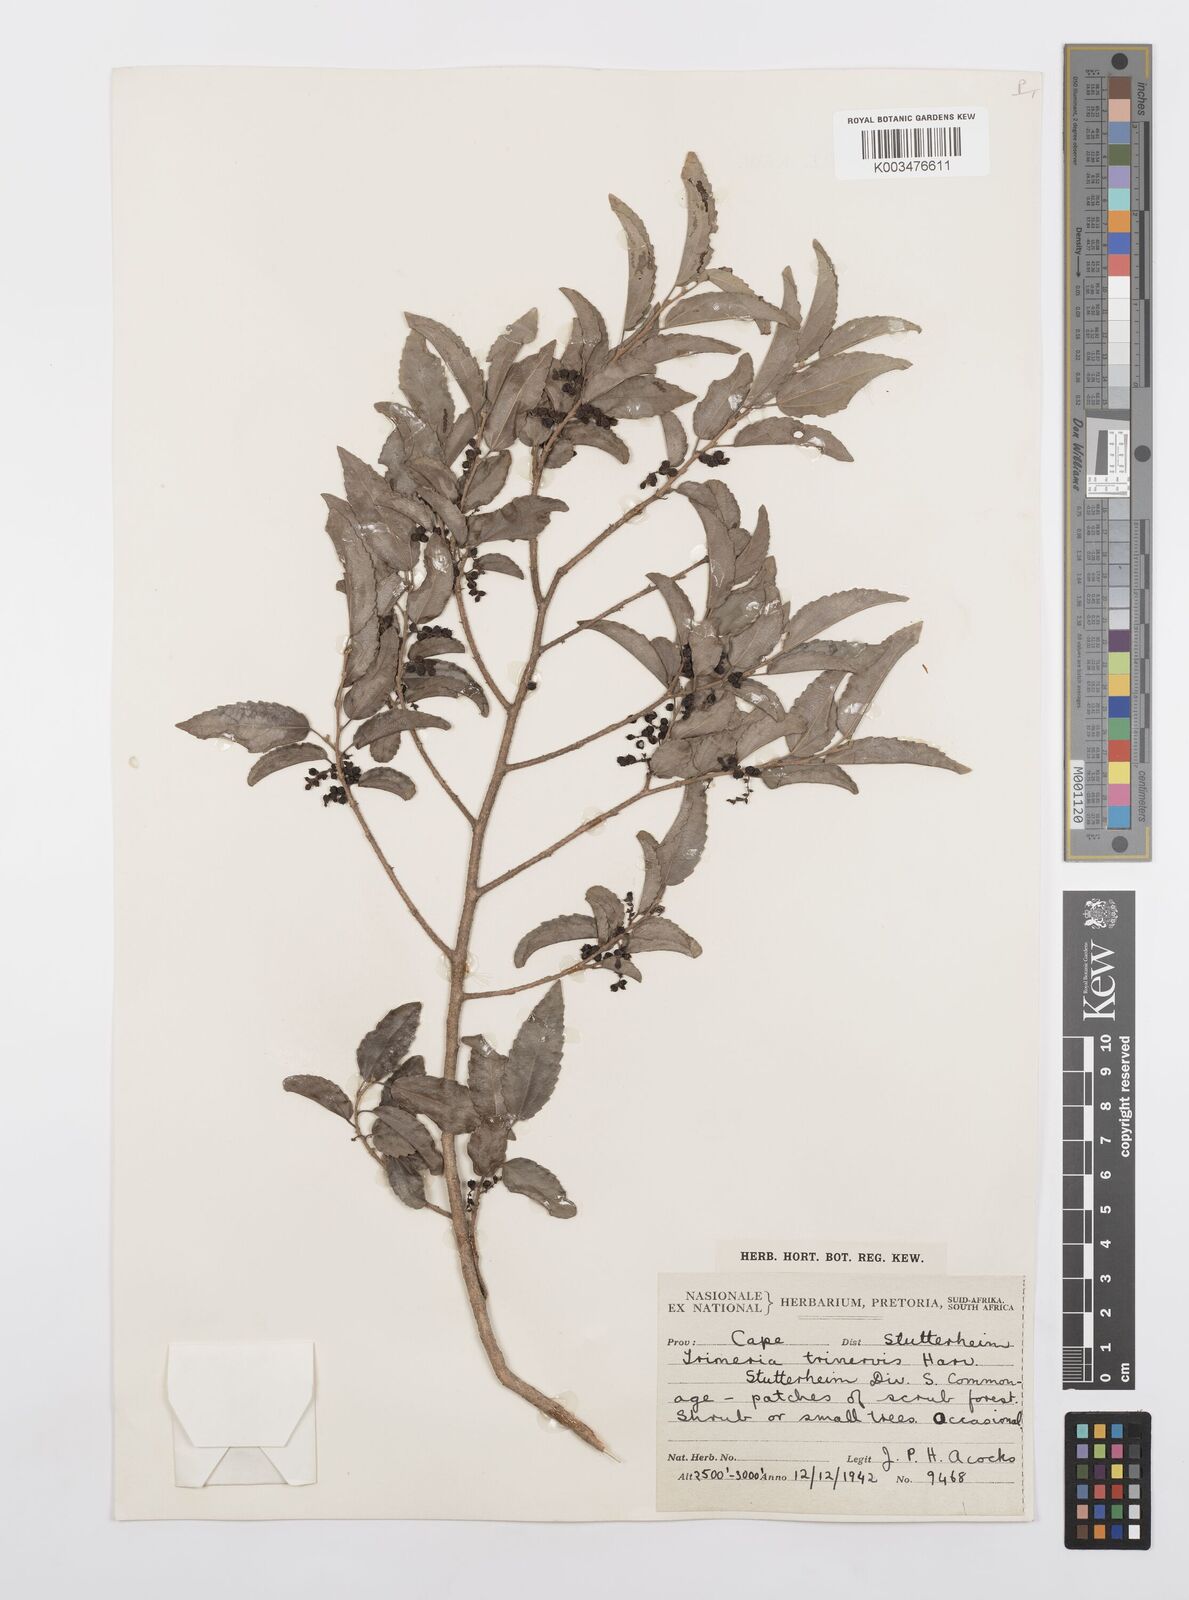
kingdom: Plantae
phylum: Tracheophyta
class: Magnoliopsida
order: Malpighiales
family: Salicaceae
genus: Trimeria
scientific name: Trimeria trinervis
